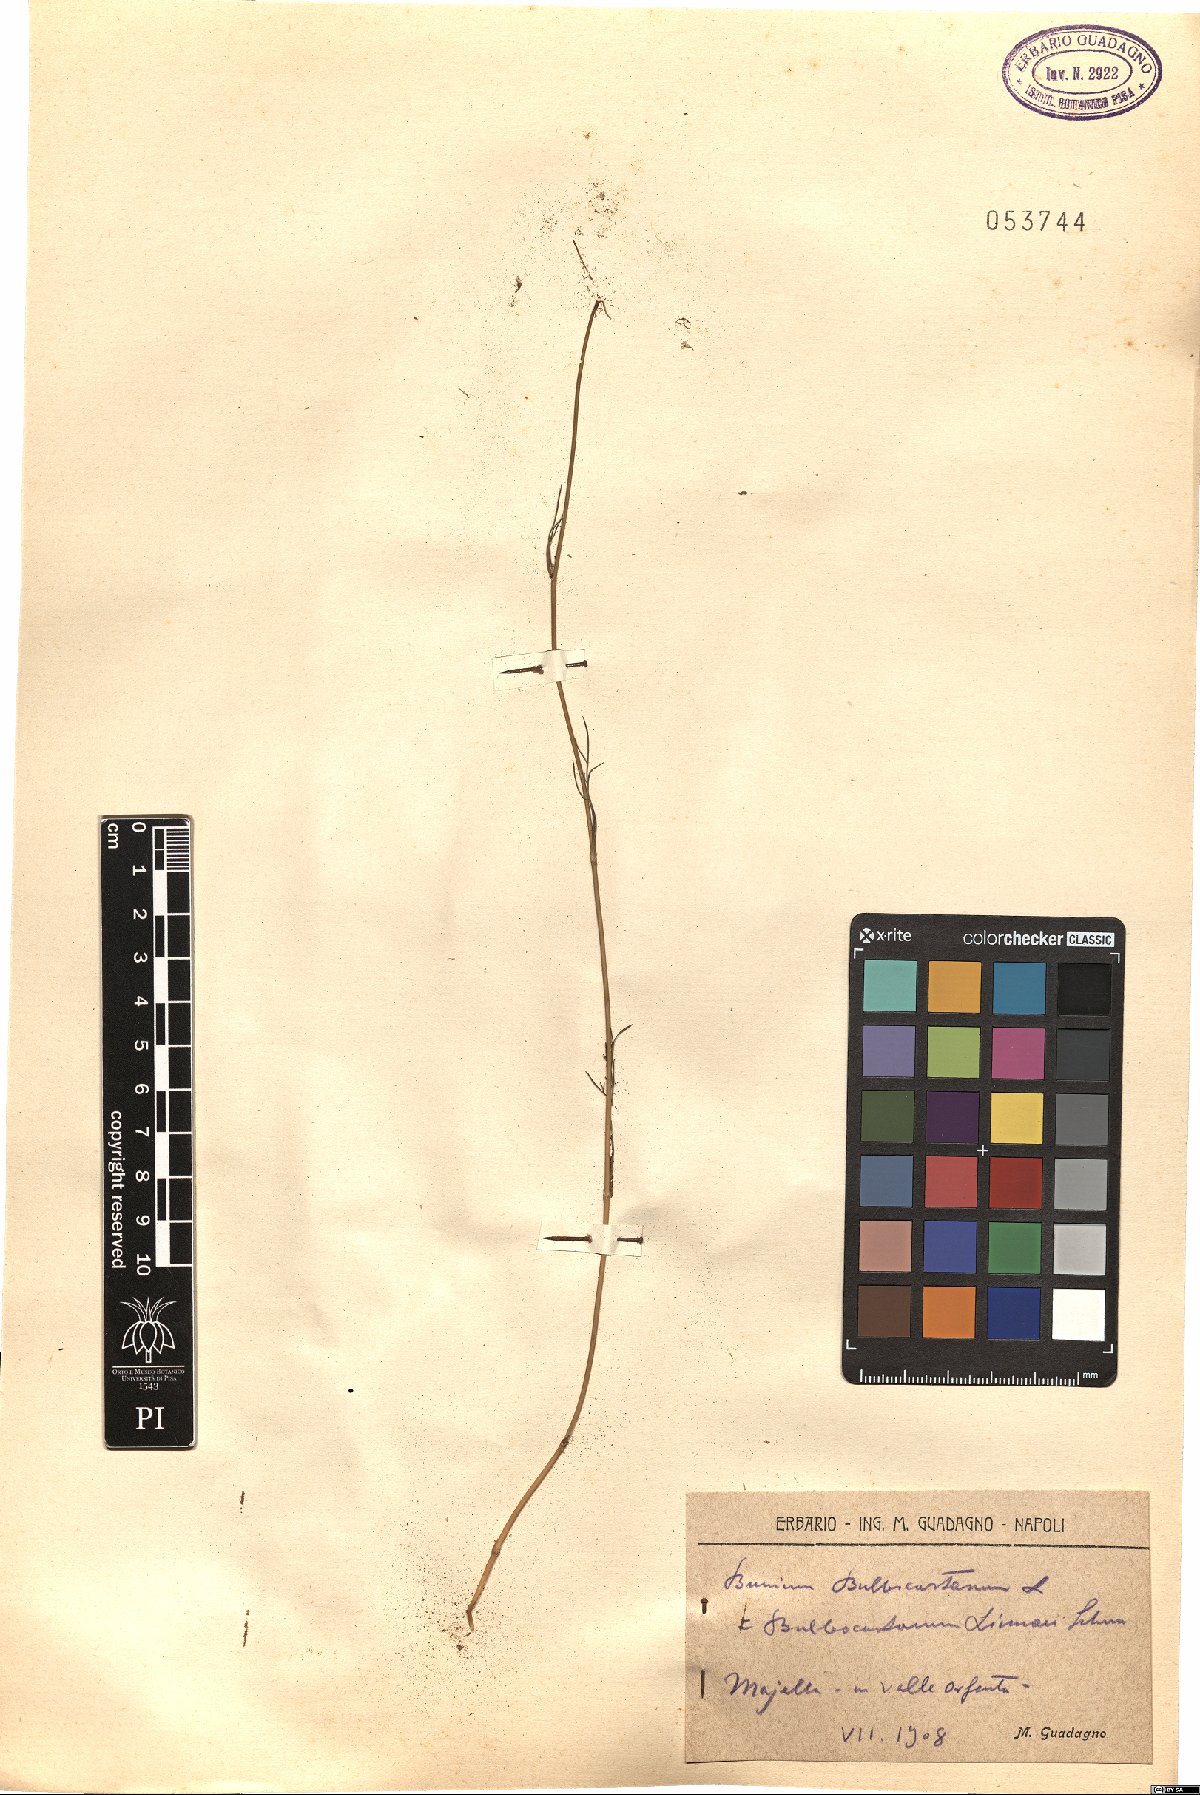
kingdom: Plantae
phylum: Tracheophyta
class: Magnoliopsida
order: Apiales
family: Apiaceae
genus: Bunium
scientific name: Bunium bulbocastanum
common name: Great pignut
